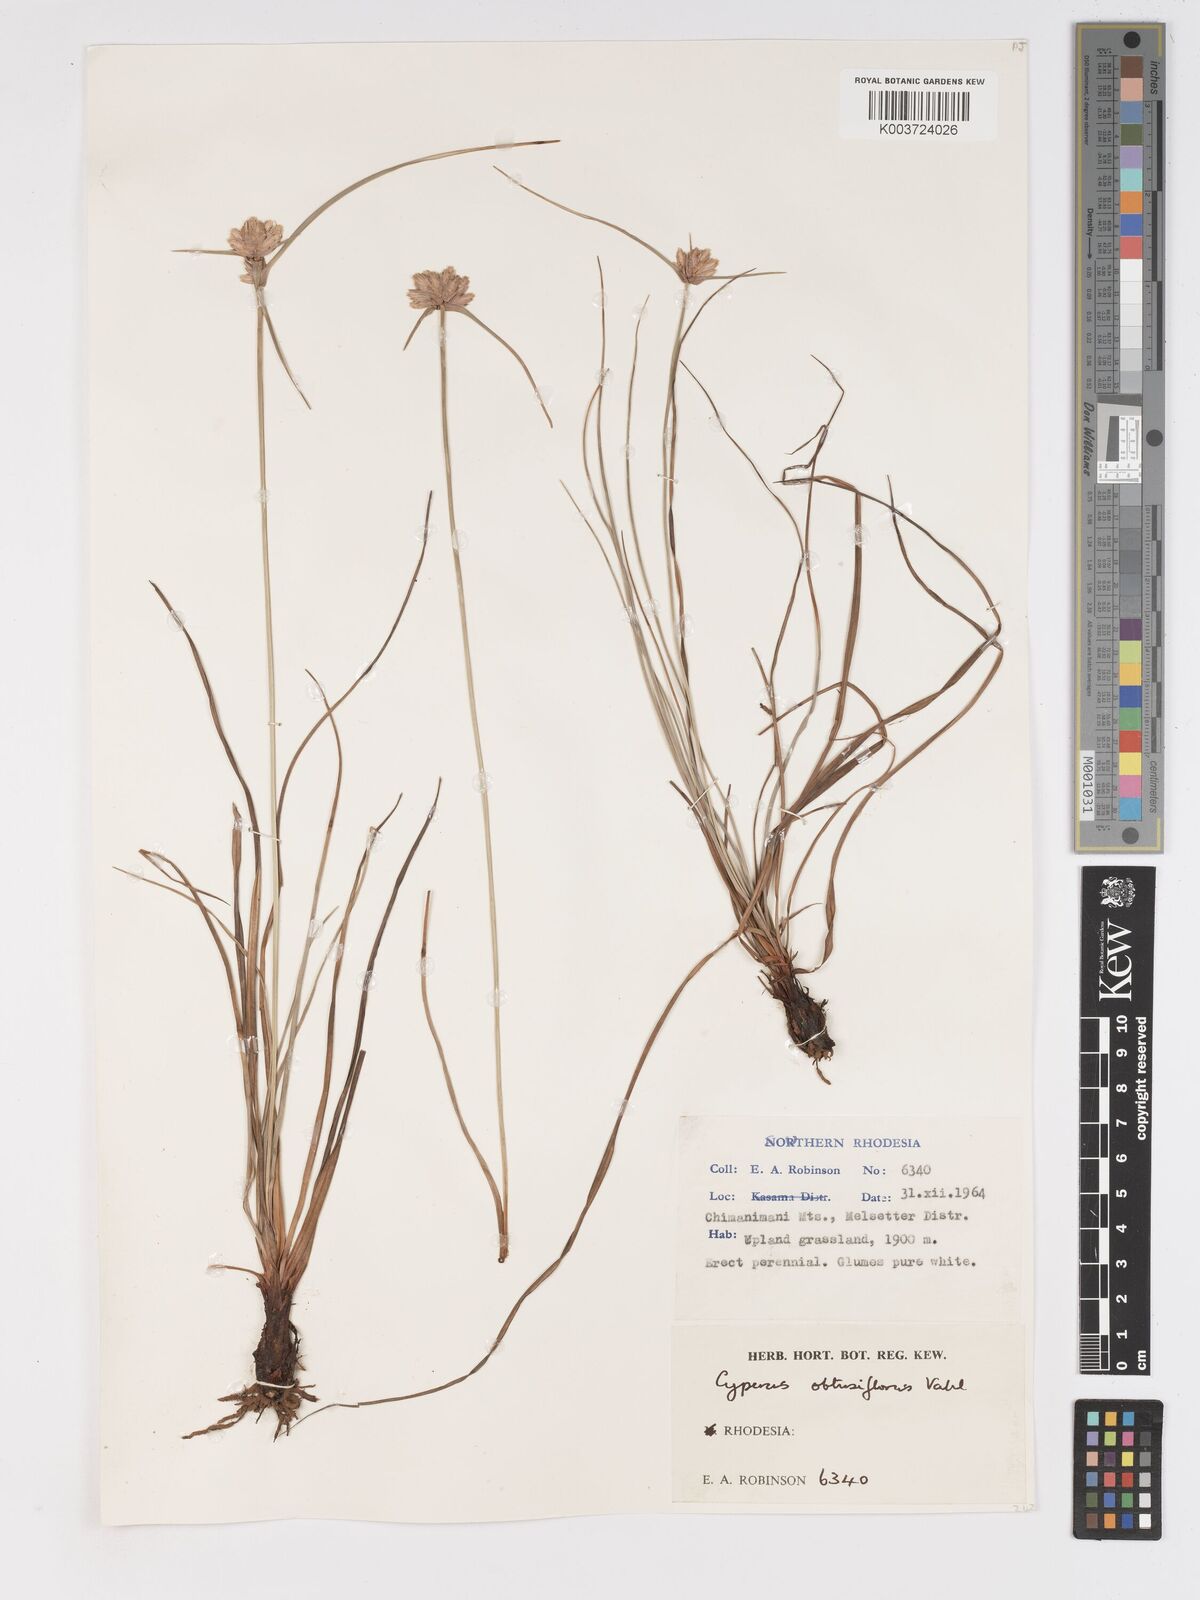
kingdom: Plantae
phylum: Tracheophyta
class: Liliopsida
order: Poales
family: Cyperaceae
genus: Cyperus
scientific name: Cyperus niveus
